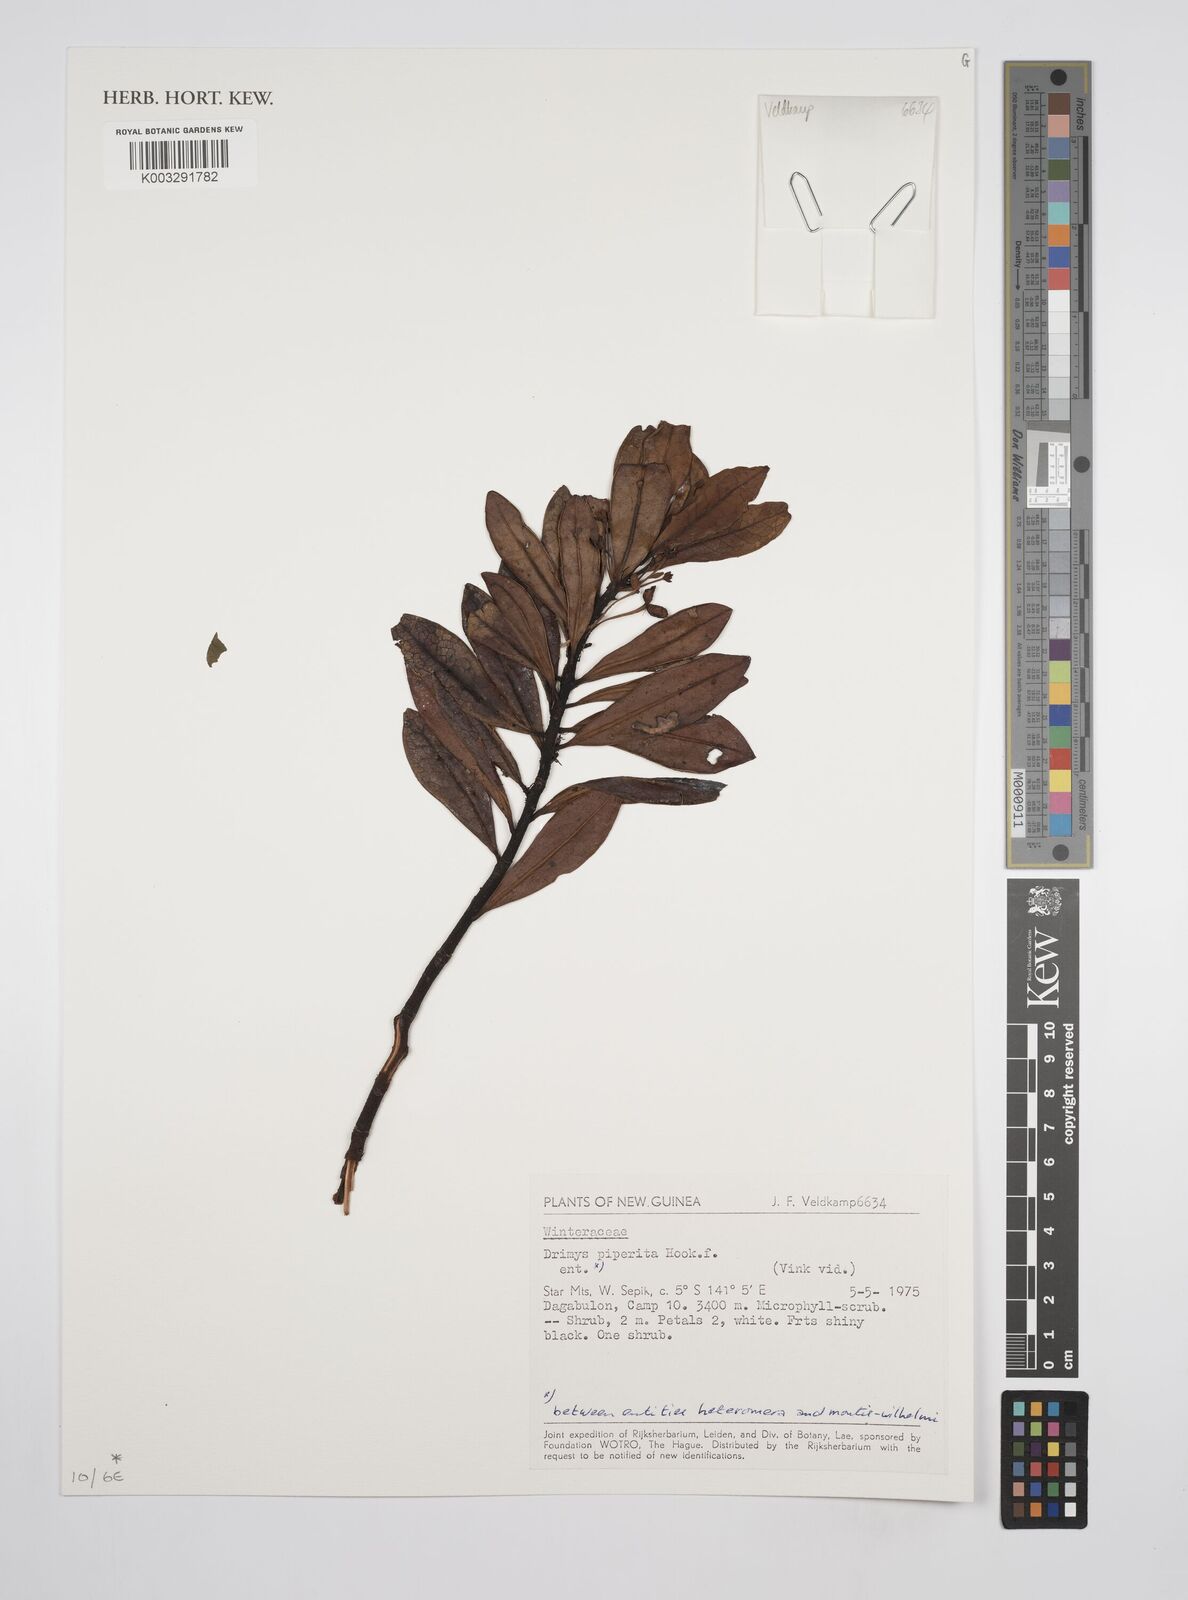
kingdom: Plantae
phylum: Tracheophyta
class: Magnoliopsida
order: Canellales
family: Winteraceae
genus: Drimys
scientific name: Drimys piperita
